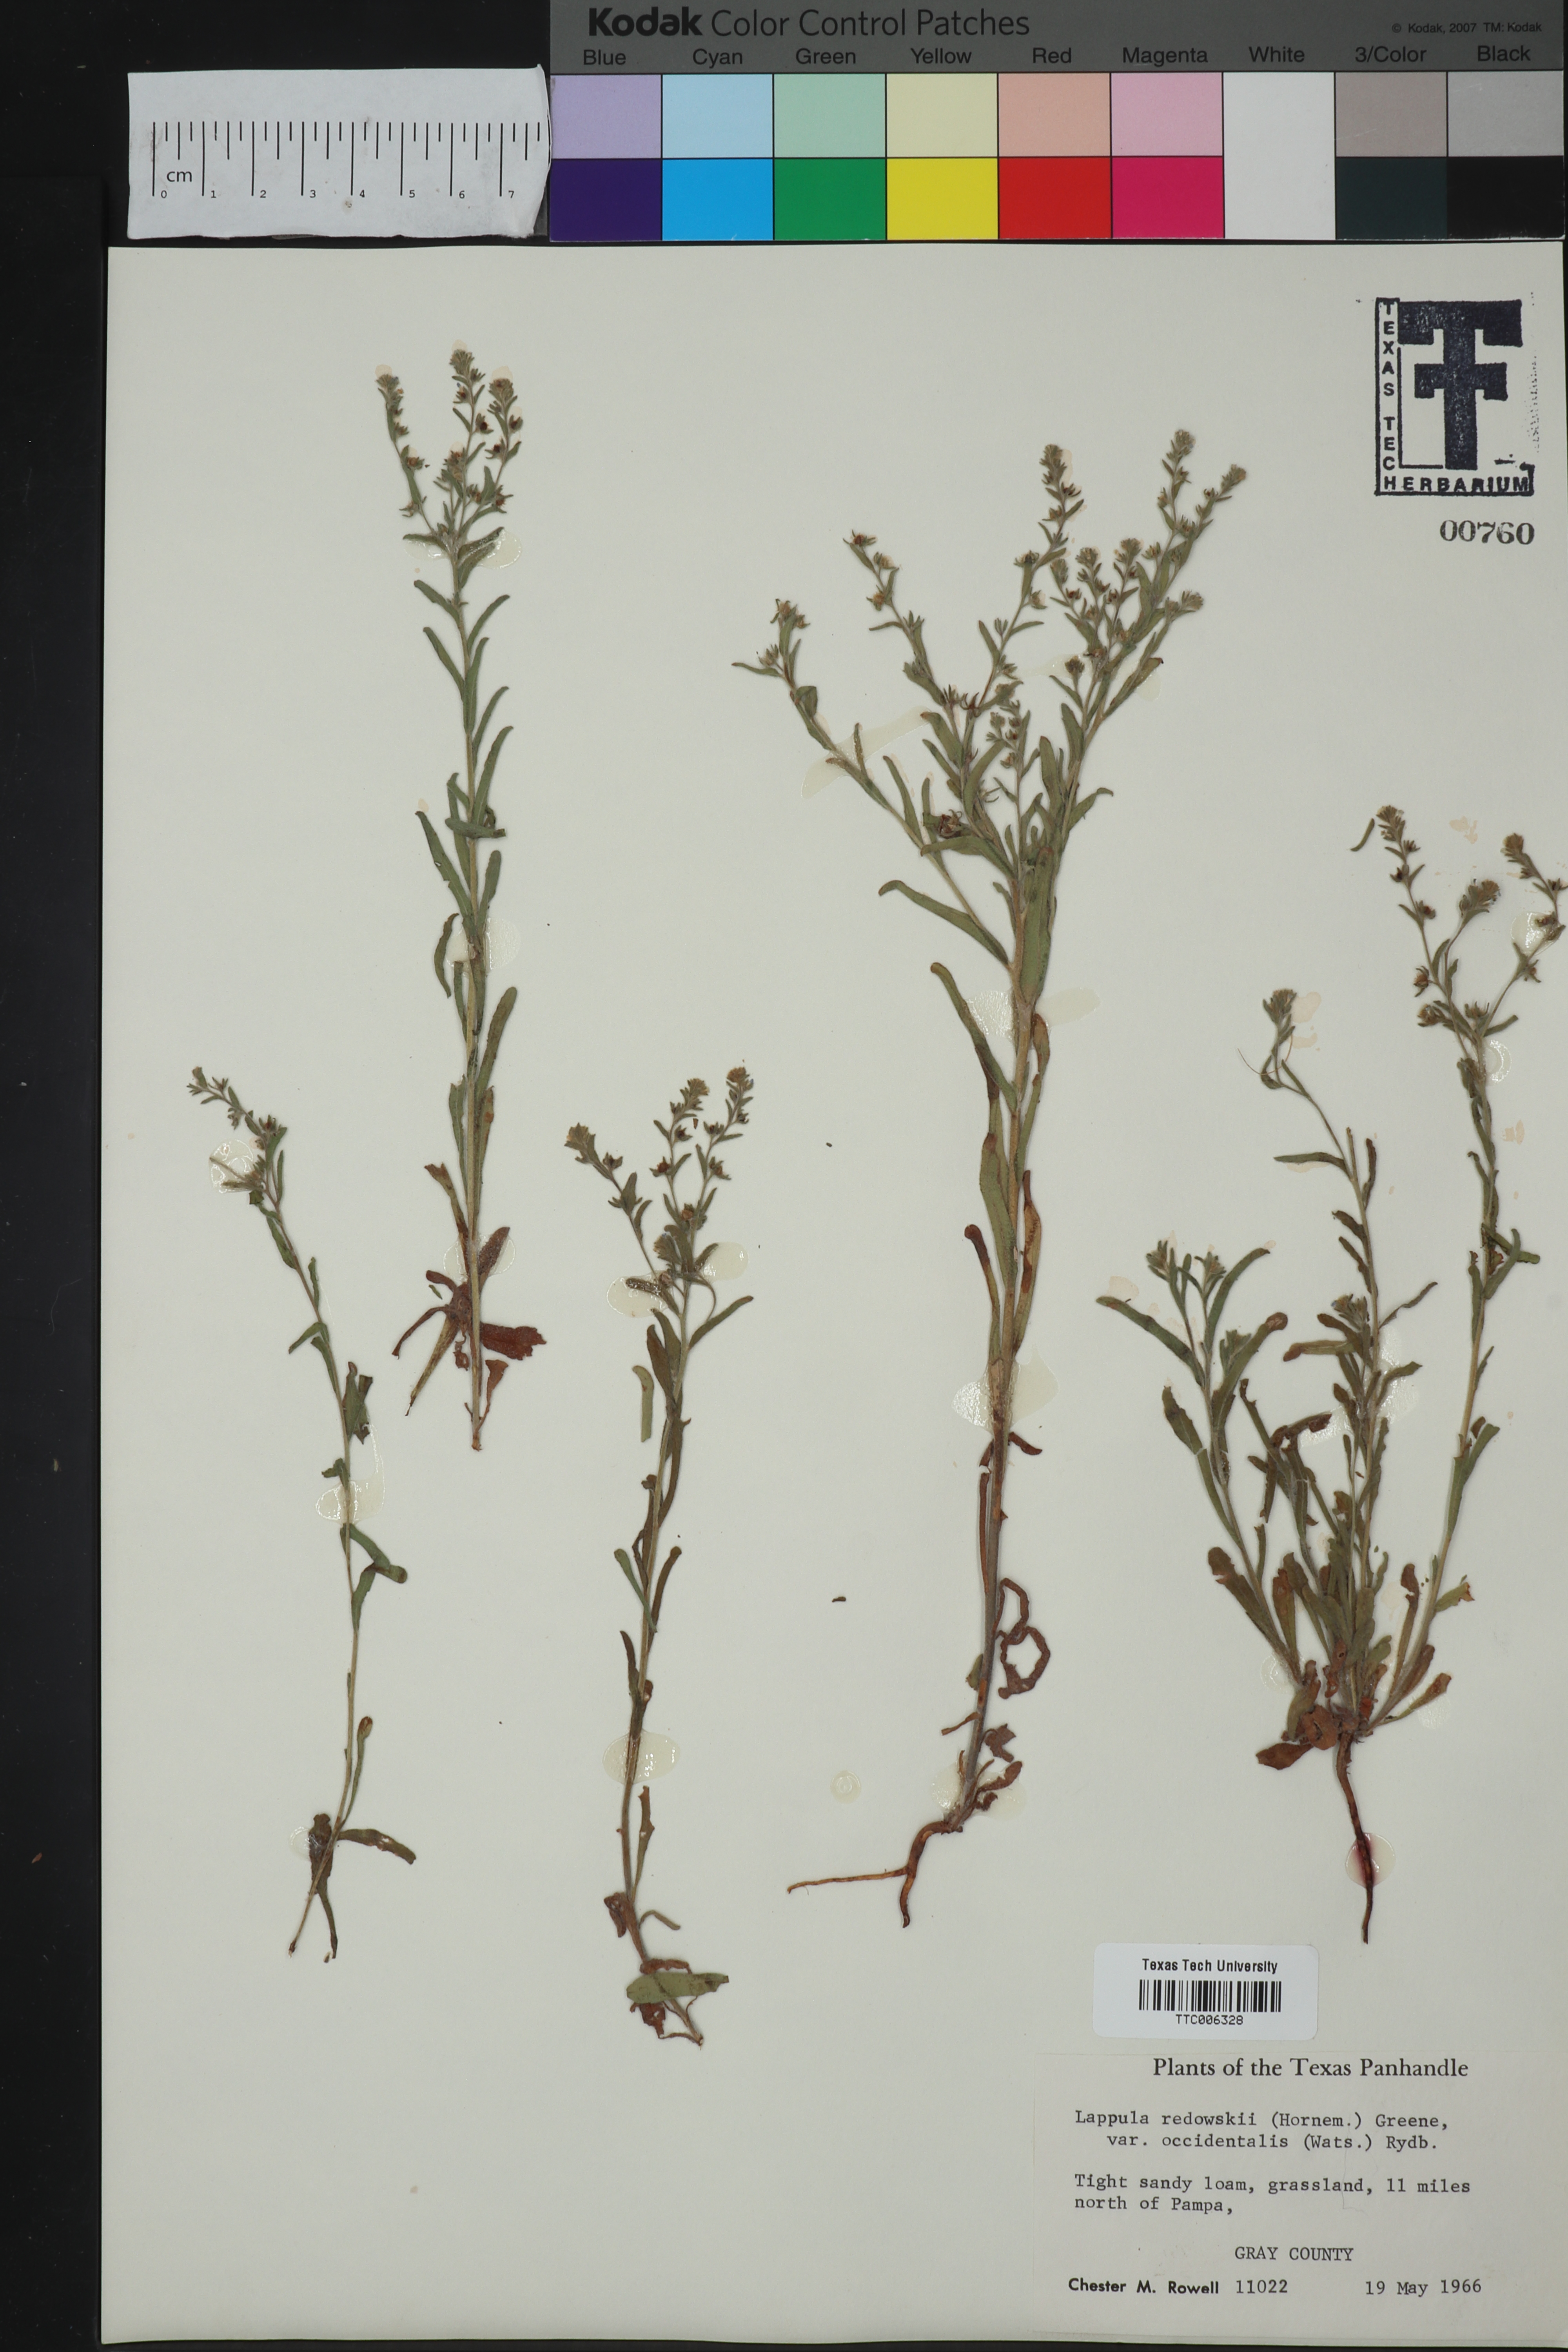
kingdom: Plantae
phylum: Tracheophyta
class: Magnoliopsida
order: Boraginales
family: Boraginaceae
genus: Lappula
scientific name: Lappula occidentalis
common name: Western stickseed
